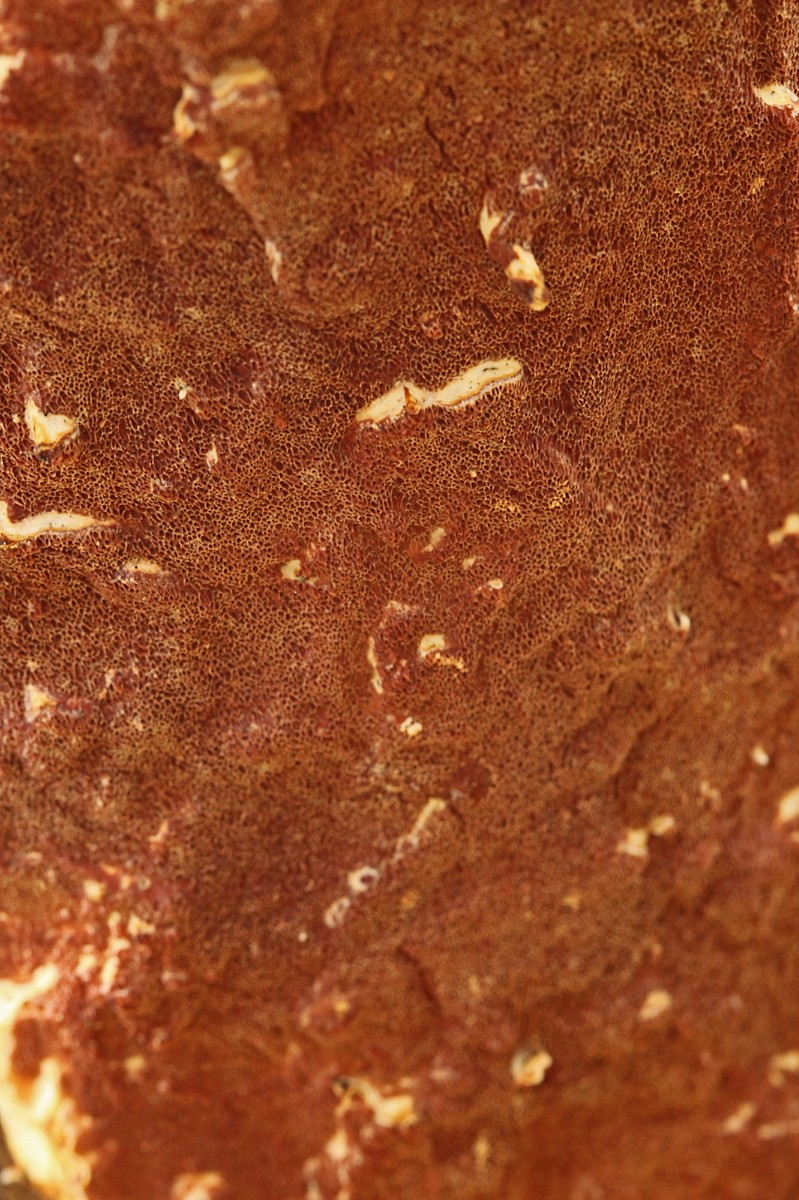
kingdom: Fungi
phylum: Basidiomycota
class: Agaricomycetes
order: Polyporales
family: Irpicaceae
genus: Meruliopsis
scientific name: Meruliopsis taxicola
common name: purpurbrun foldporesvamp
